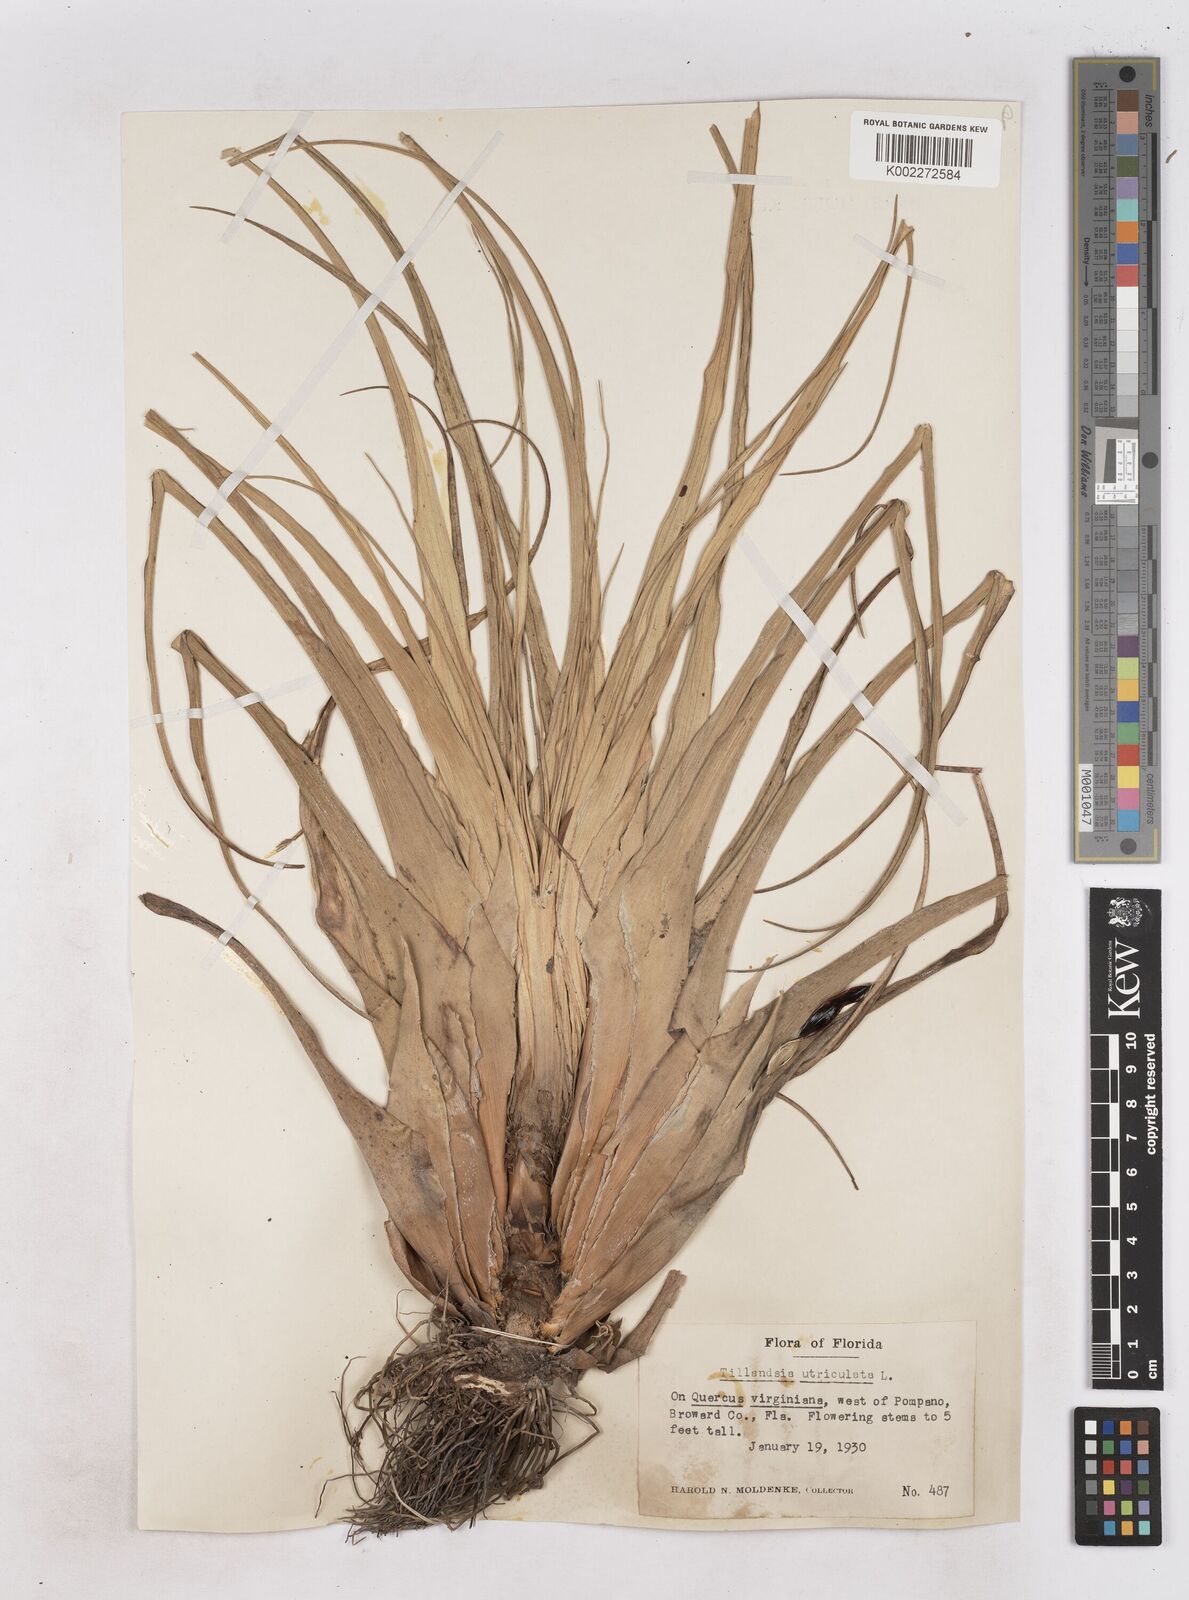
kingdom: Plantae
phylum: Tracheophyta
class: Liliopsida
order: Poales
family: Bromeliaceae
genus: Tillandsia
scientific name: Tillandsia utriculata
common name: Wild pine
